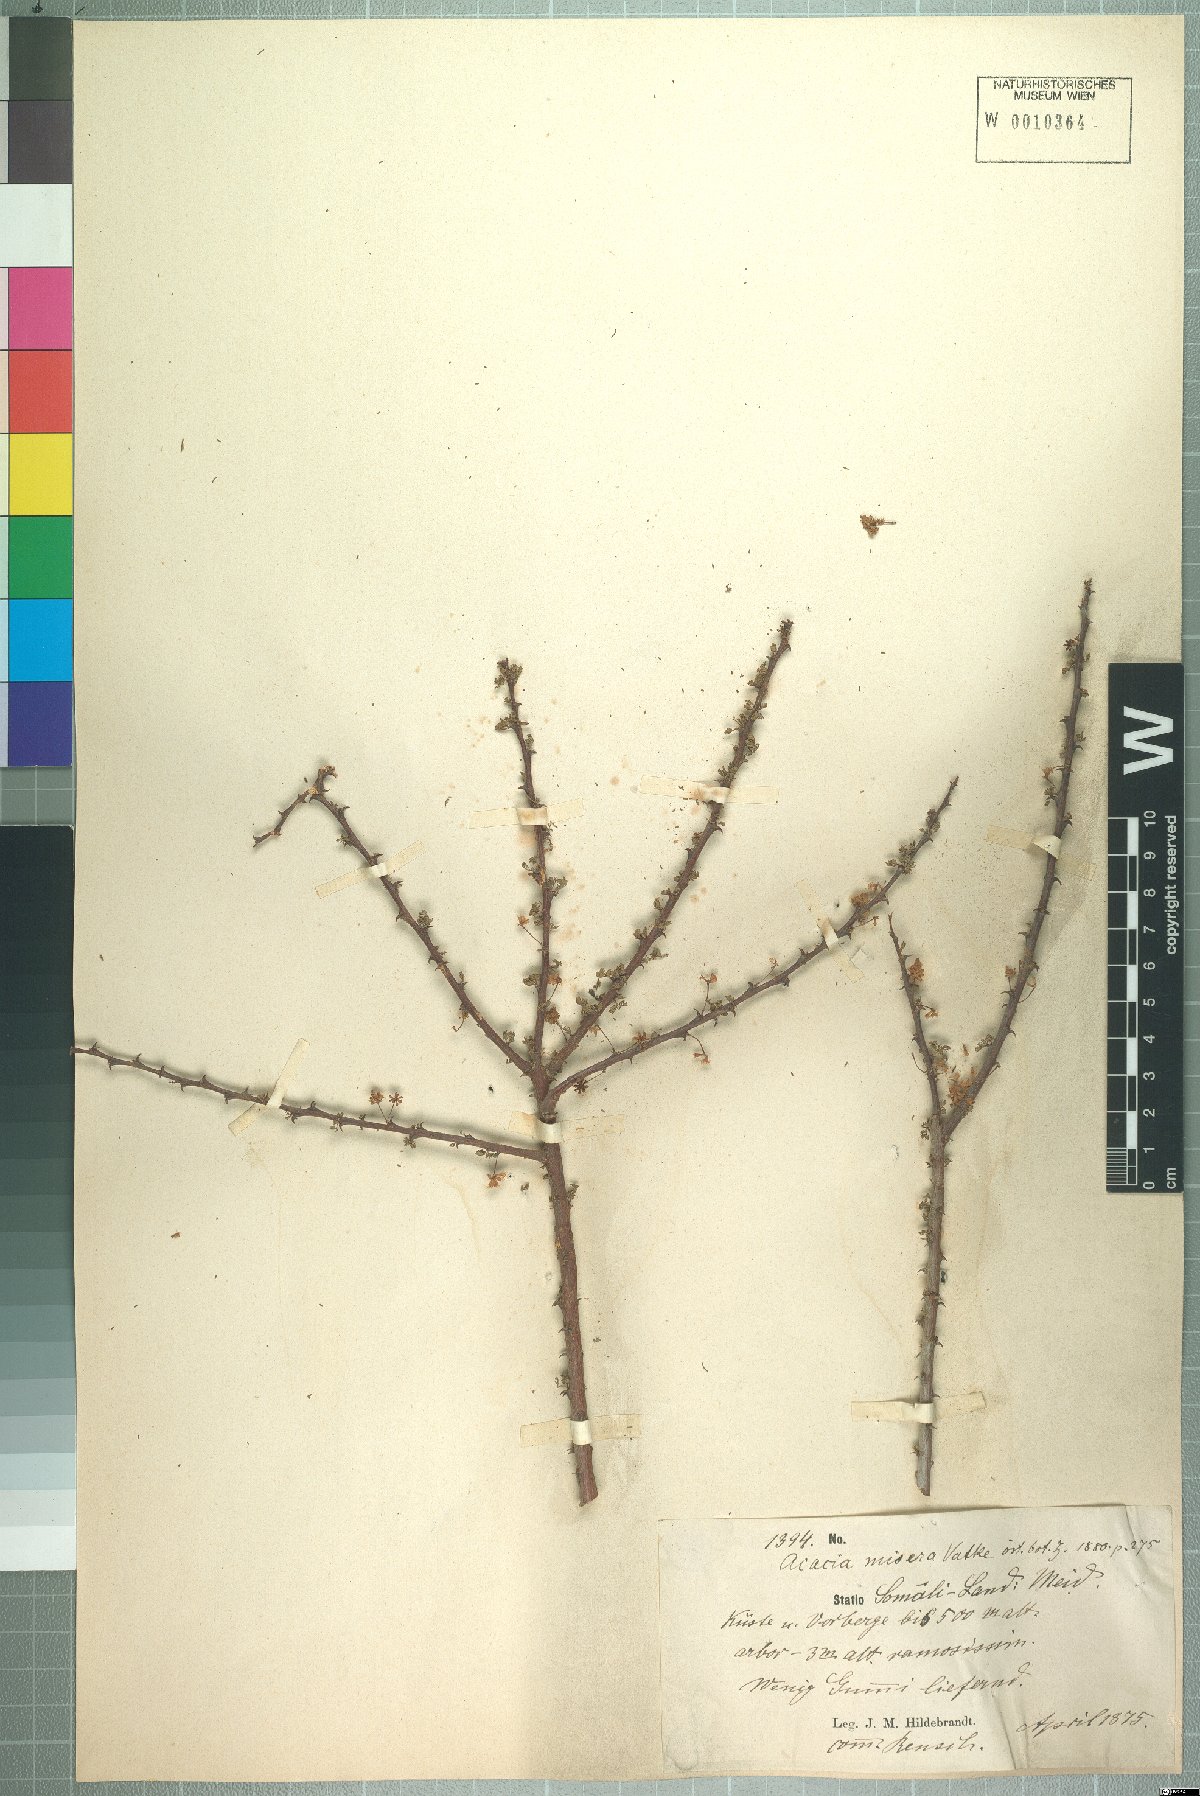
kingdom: Plantae
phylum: Tracheophyta
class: Magnoliopsida
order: Fabales
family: Fabaceae
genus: Vachellia
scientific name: Vachellia reficiens
